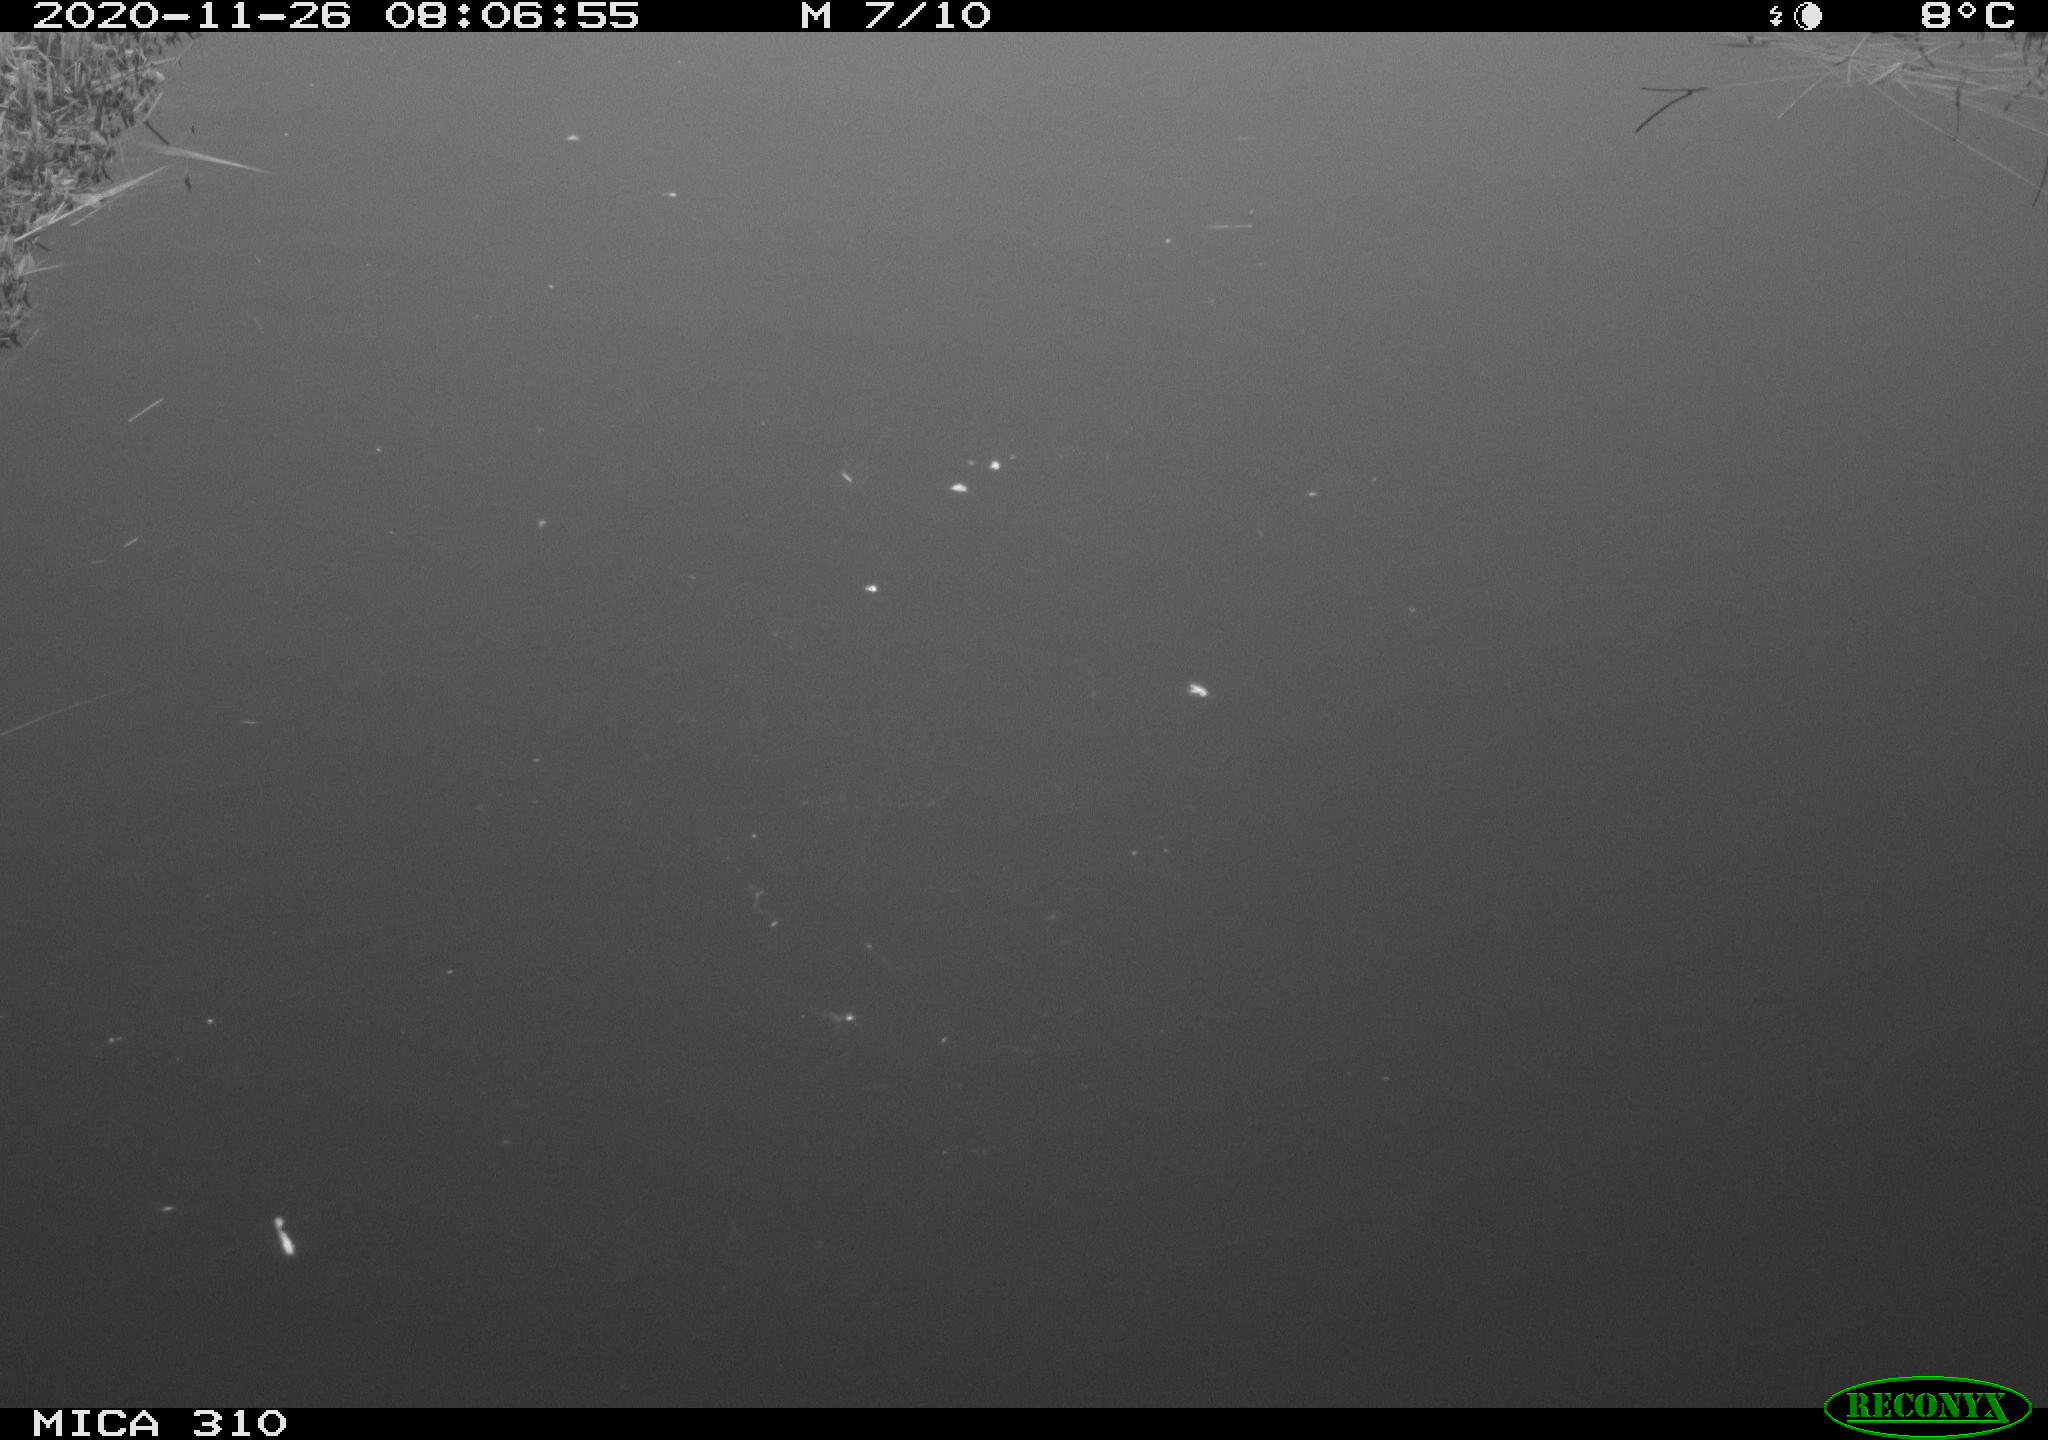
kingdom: Animalia
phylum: Chordata
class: Aves
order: Gruiformes
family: Rallidae
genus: Gallinula
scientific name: Gallinula chloropus
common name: Common moorhen
